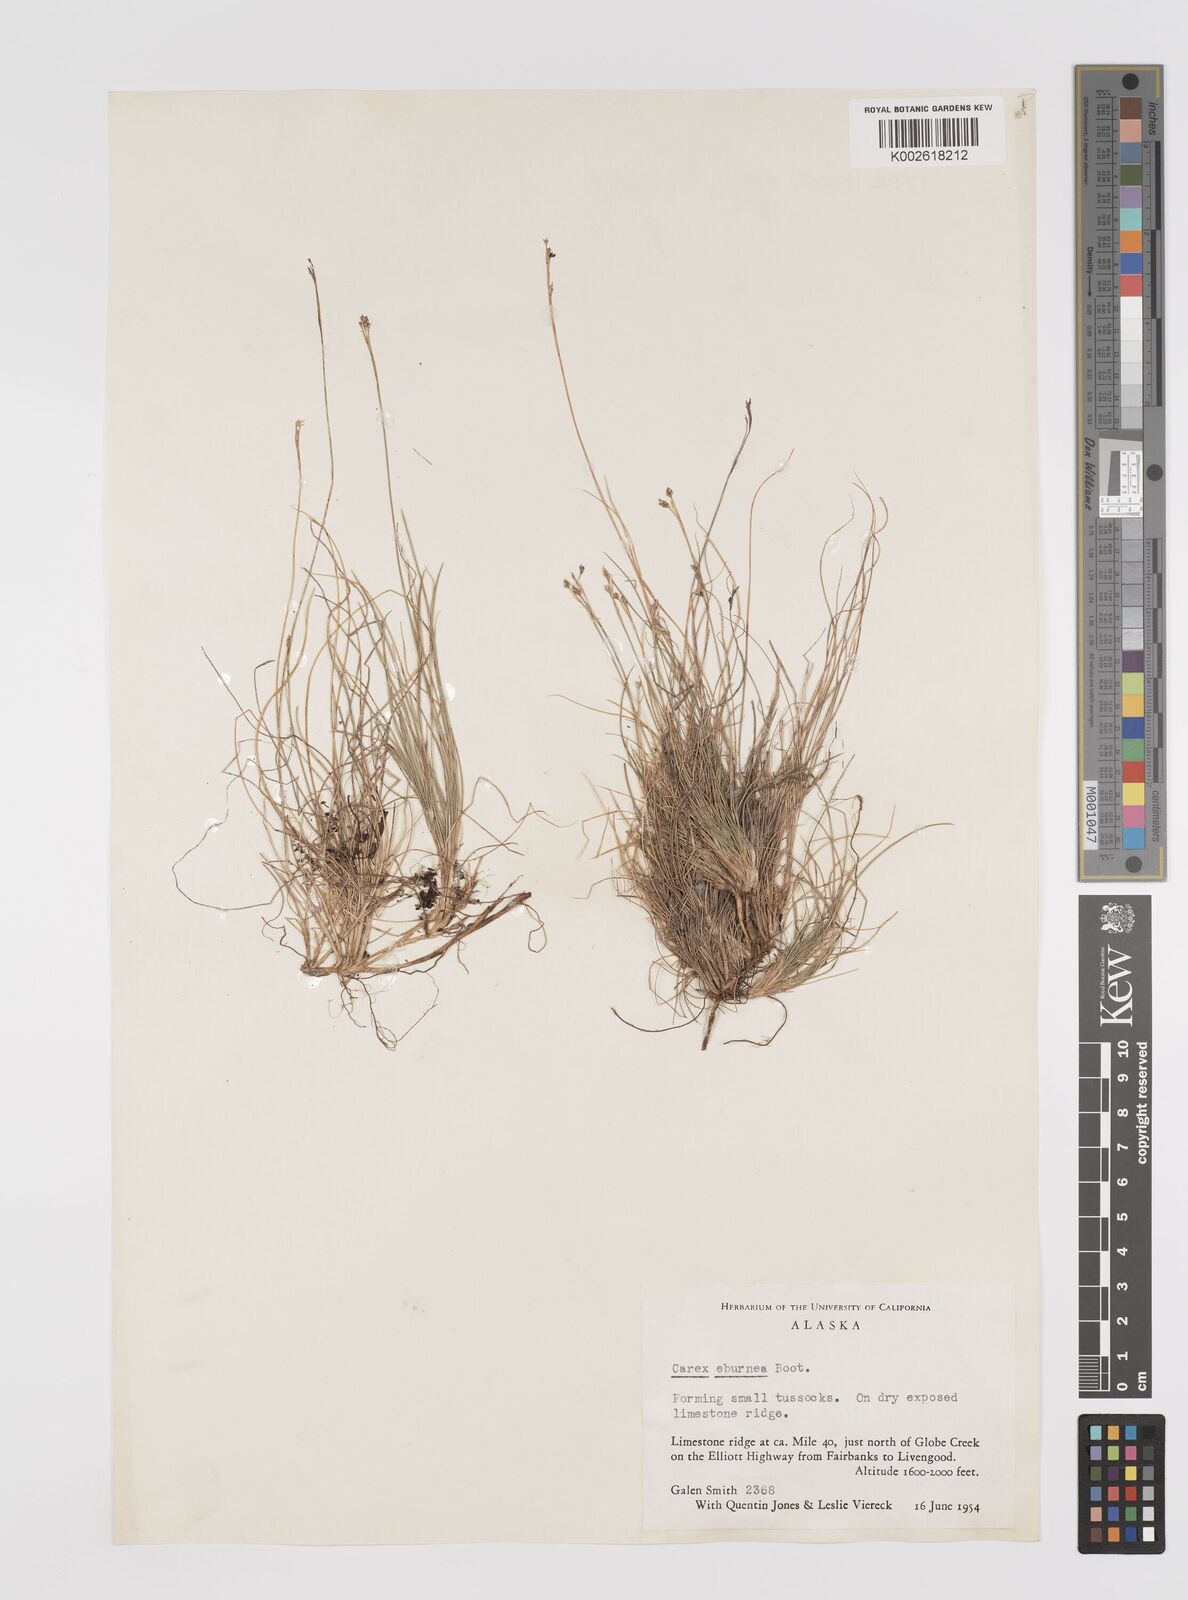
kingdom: Plantae
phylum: Tracheophyta
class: Liliopsida
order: Poales
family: Cyperaceae
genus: Carex
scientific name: Carex eburnea
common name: Bristle-leaved sedge
